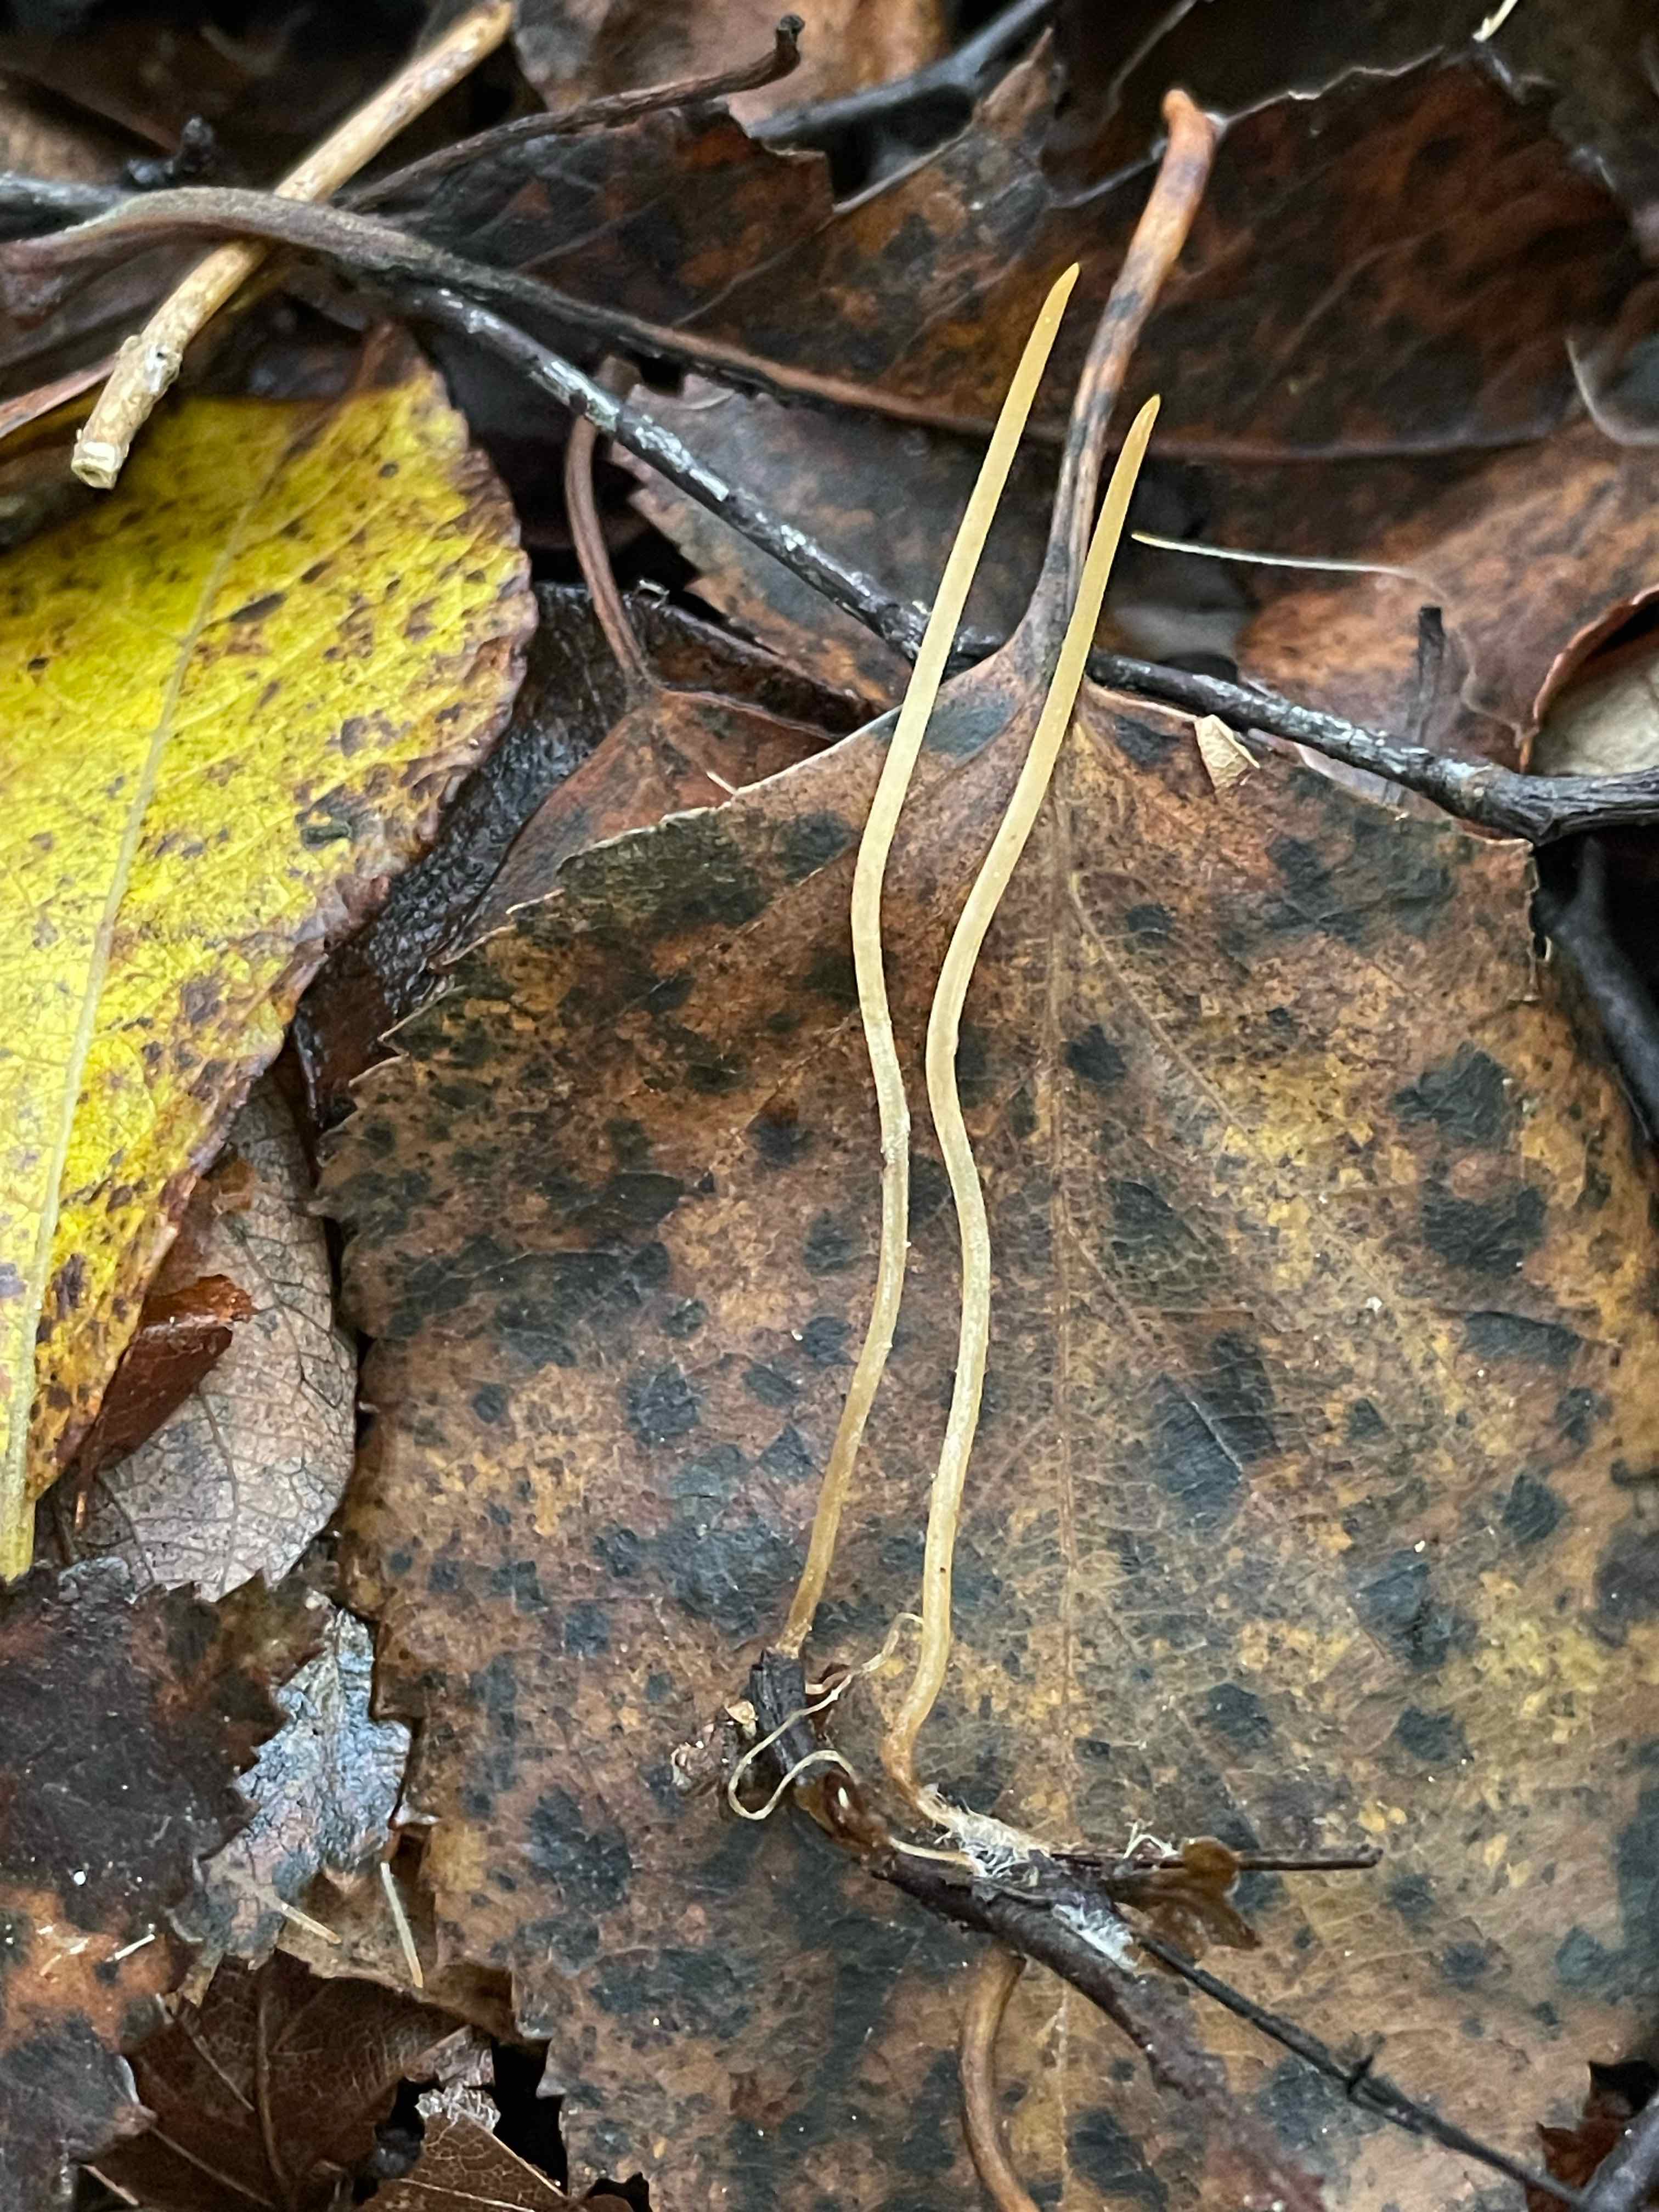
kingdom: Fungi
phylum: Basidiomycota
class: Agaricomycetes
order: Agaricales
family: Typhulaceae
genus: Typhula
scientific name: Typhula juncea
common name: trådagtig rørkølle
